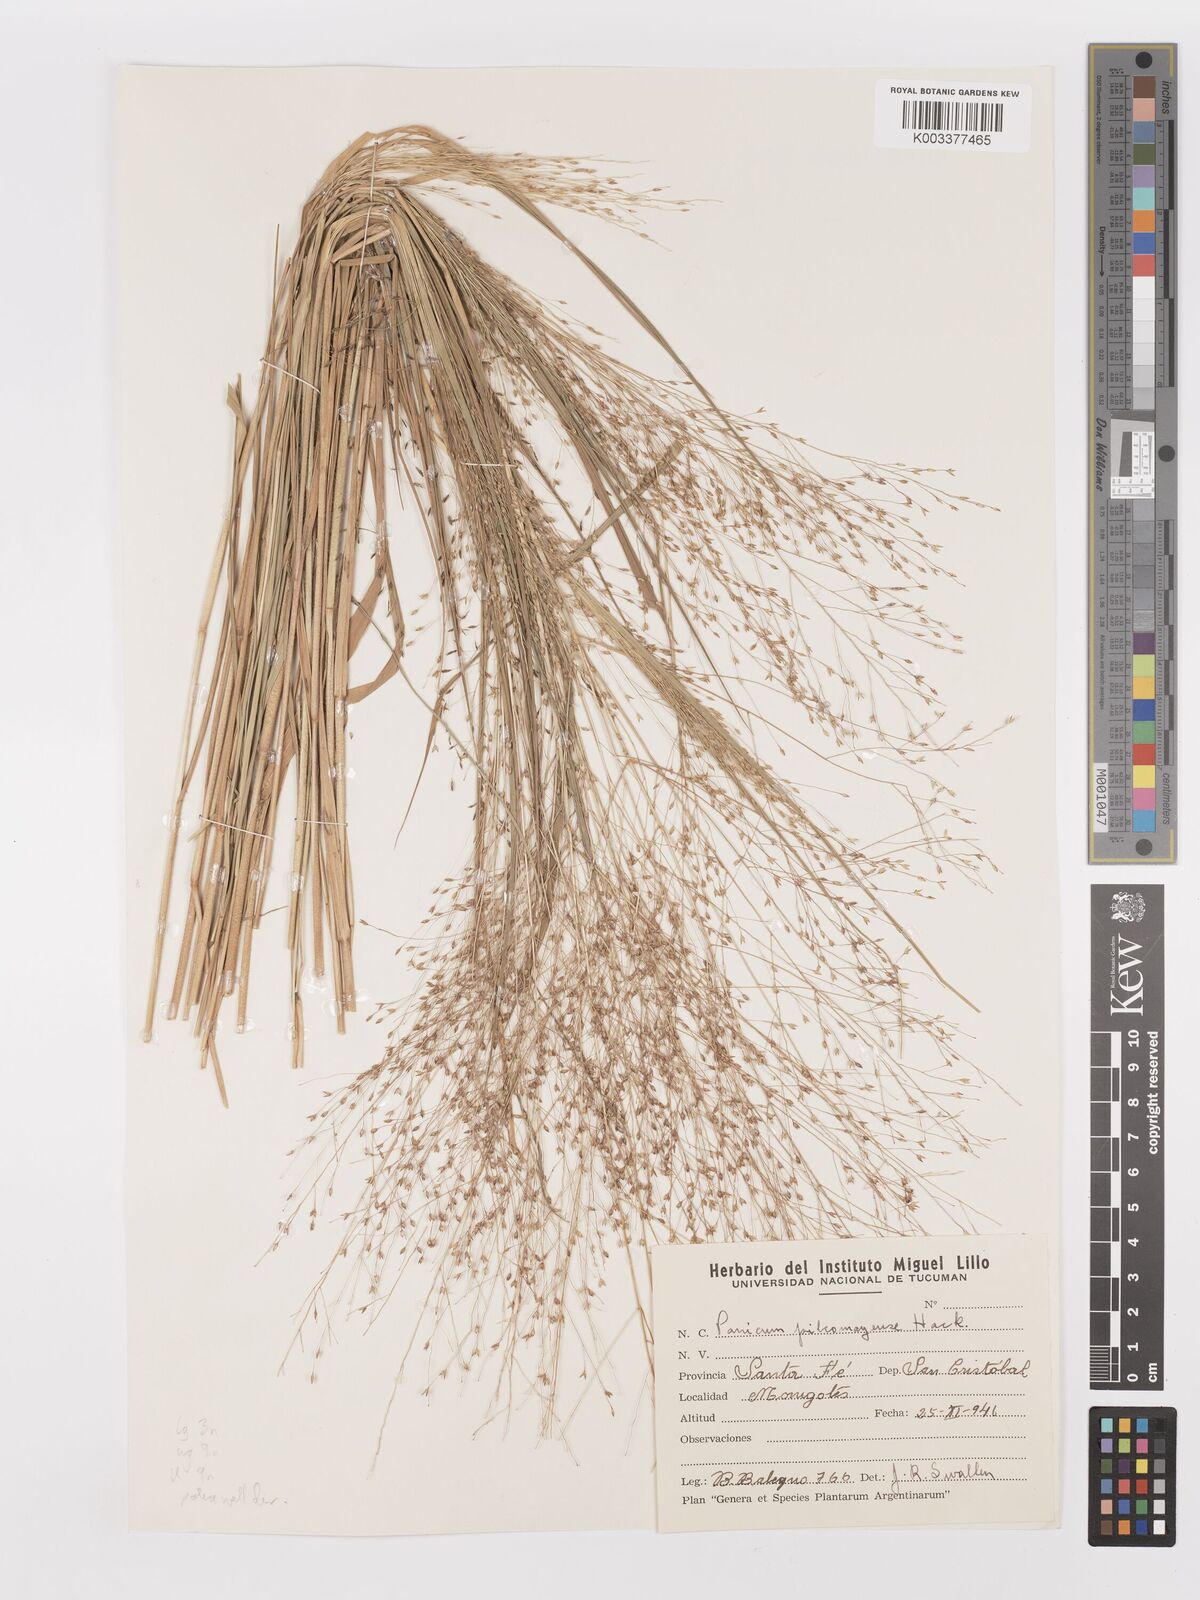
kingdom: Plantae
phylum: Tracheophyta
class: Liliopsida
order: Poales
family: Poaceae
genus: Panicum
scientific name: Panicum bergii
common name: Berg's panicgrass
